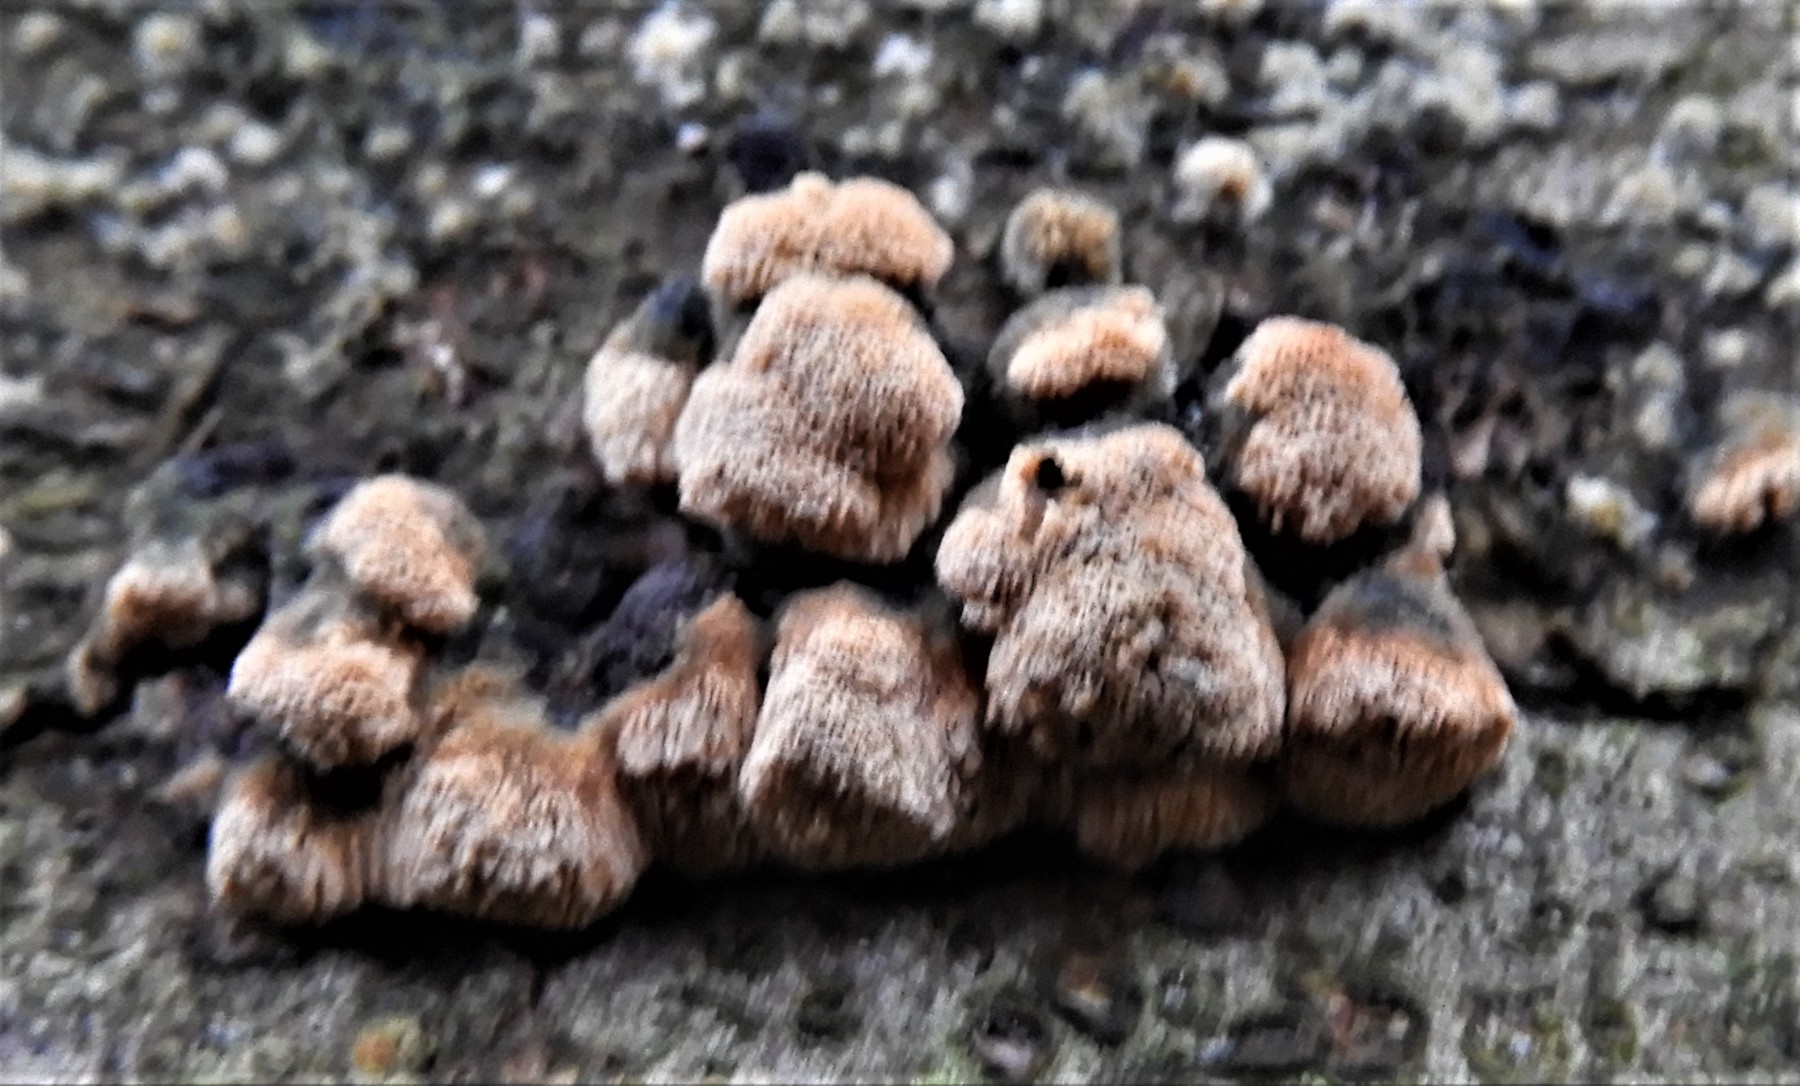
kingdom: Fungi
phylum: Basidiomycota
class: Agaricomycetes
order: Hymenochaetales
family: Schizoporaceae
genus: Xylodon
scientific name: Xylodon
